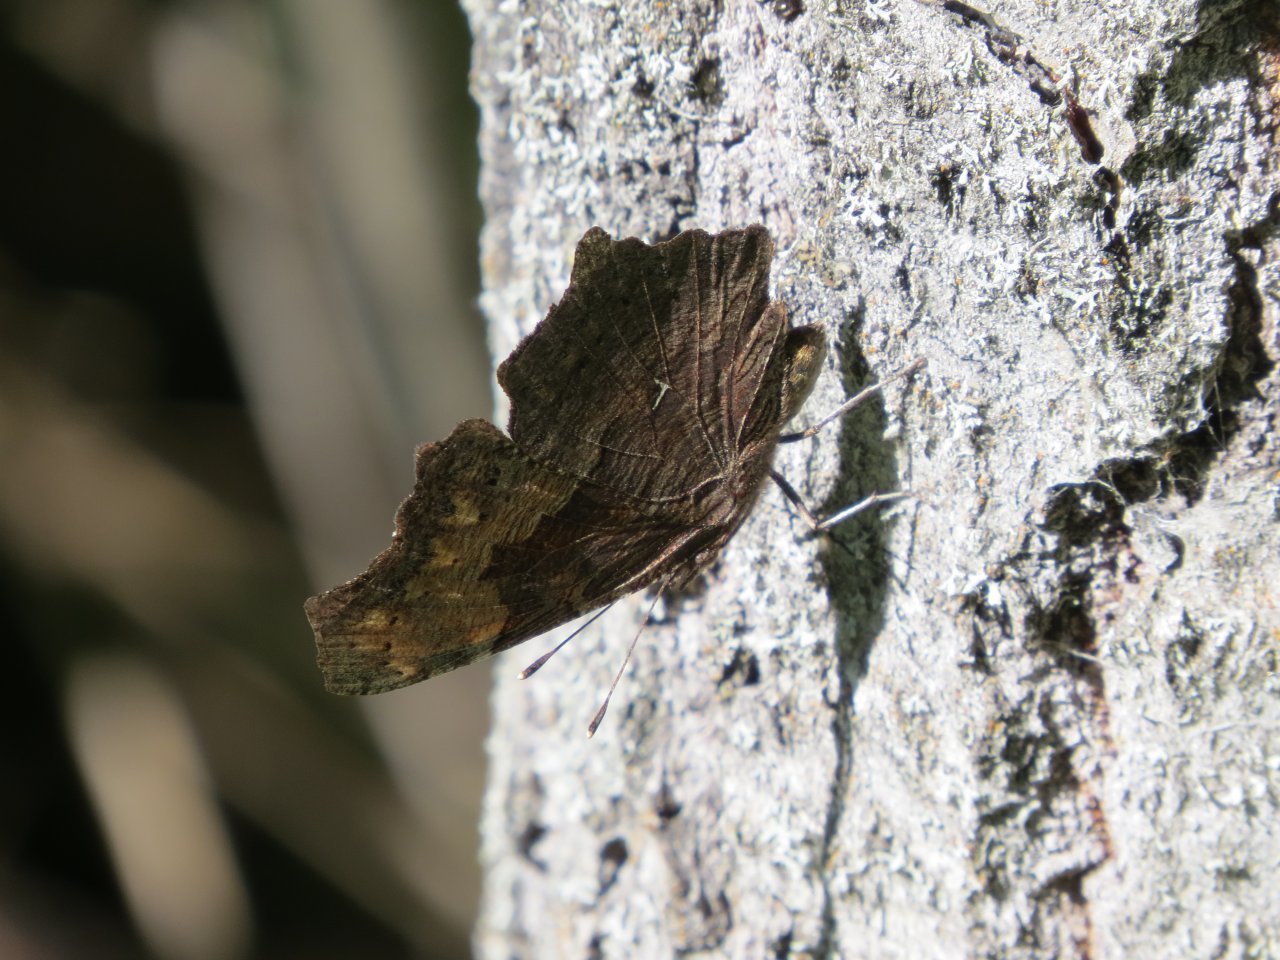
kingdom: Animalia
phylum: Arthropoda
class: Insecta
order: Lepidoptera
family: Nymphalidae
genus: Polygonia
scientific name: Polygonia progne
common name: Gray Comma
